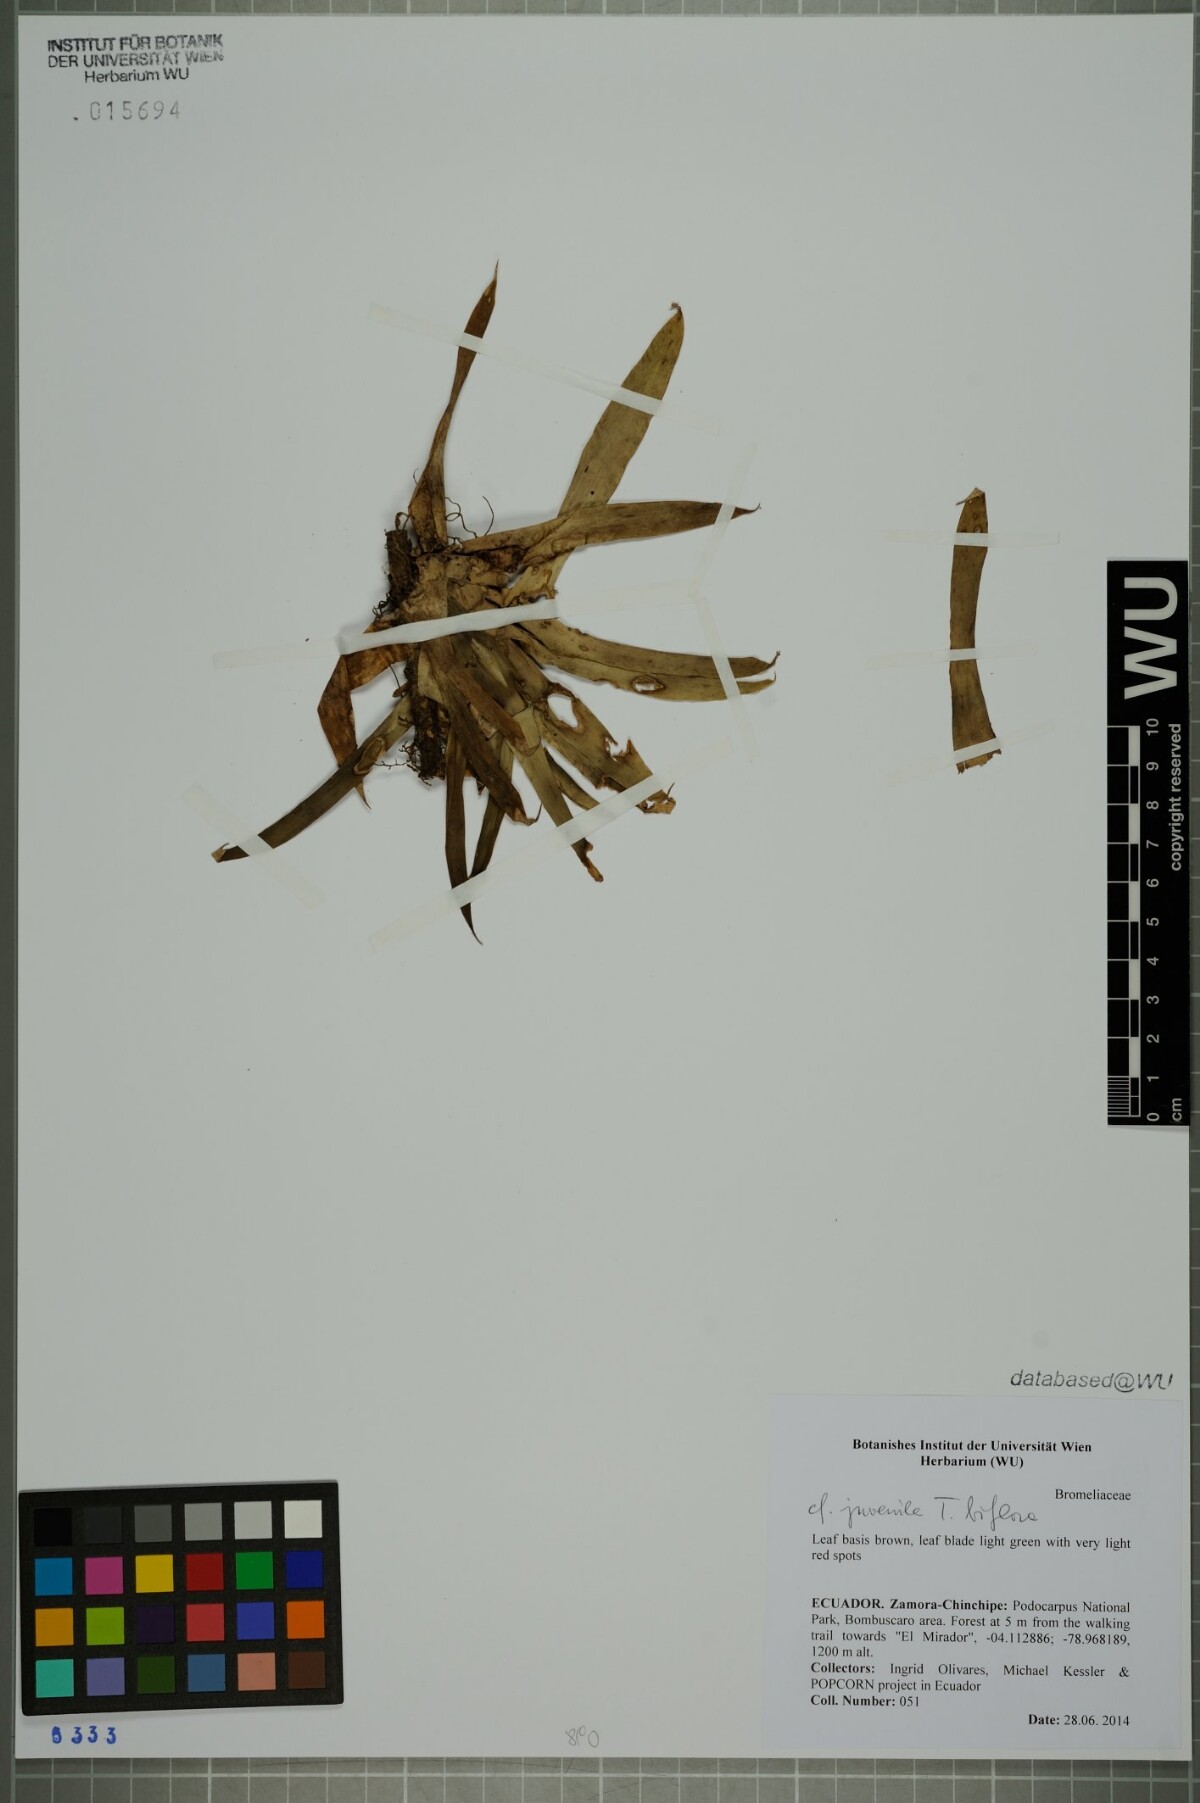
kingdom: Plantae
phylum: Tracheophyta
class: Liliopsida
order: Poales
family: Bromeliaceae
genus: Tillandsia
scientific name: Tillandsia biflora
